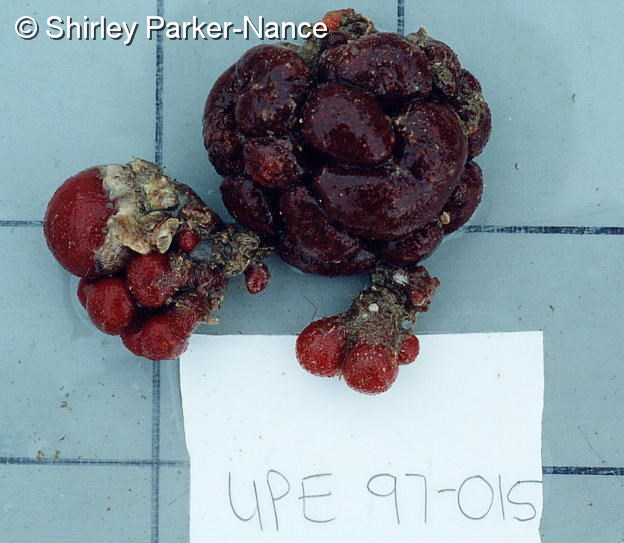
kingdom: Animalia
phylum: Chordata
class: Ascidiacea
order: Aplousobranchia
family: Polyclinidae
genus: Aplidiopsis
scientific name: Aplidiopsis tubiferus
